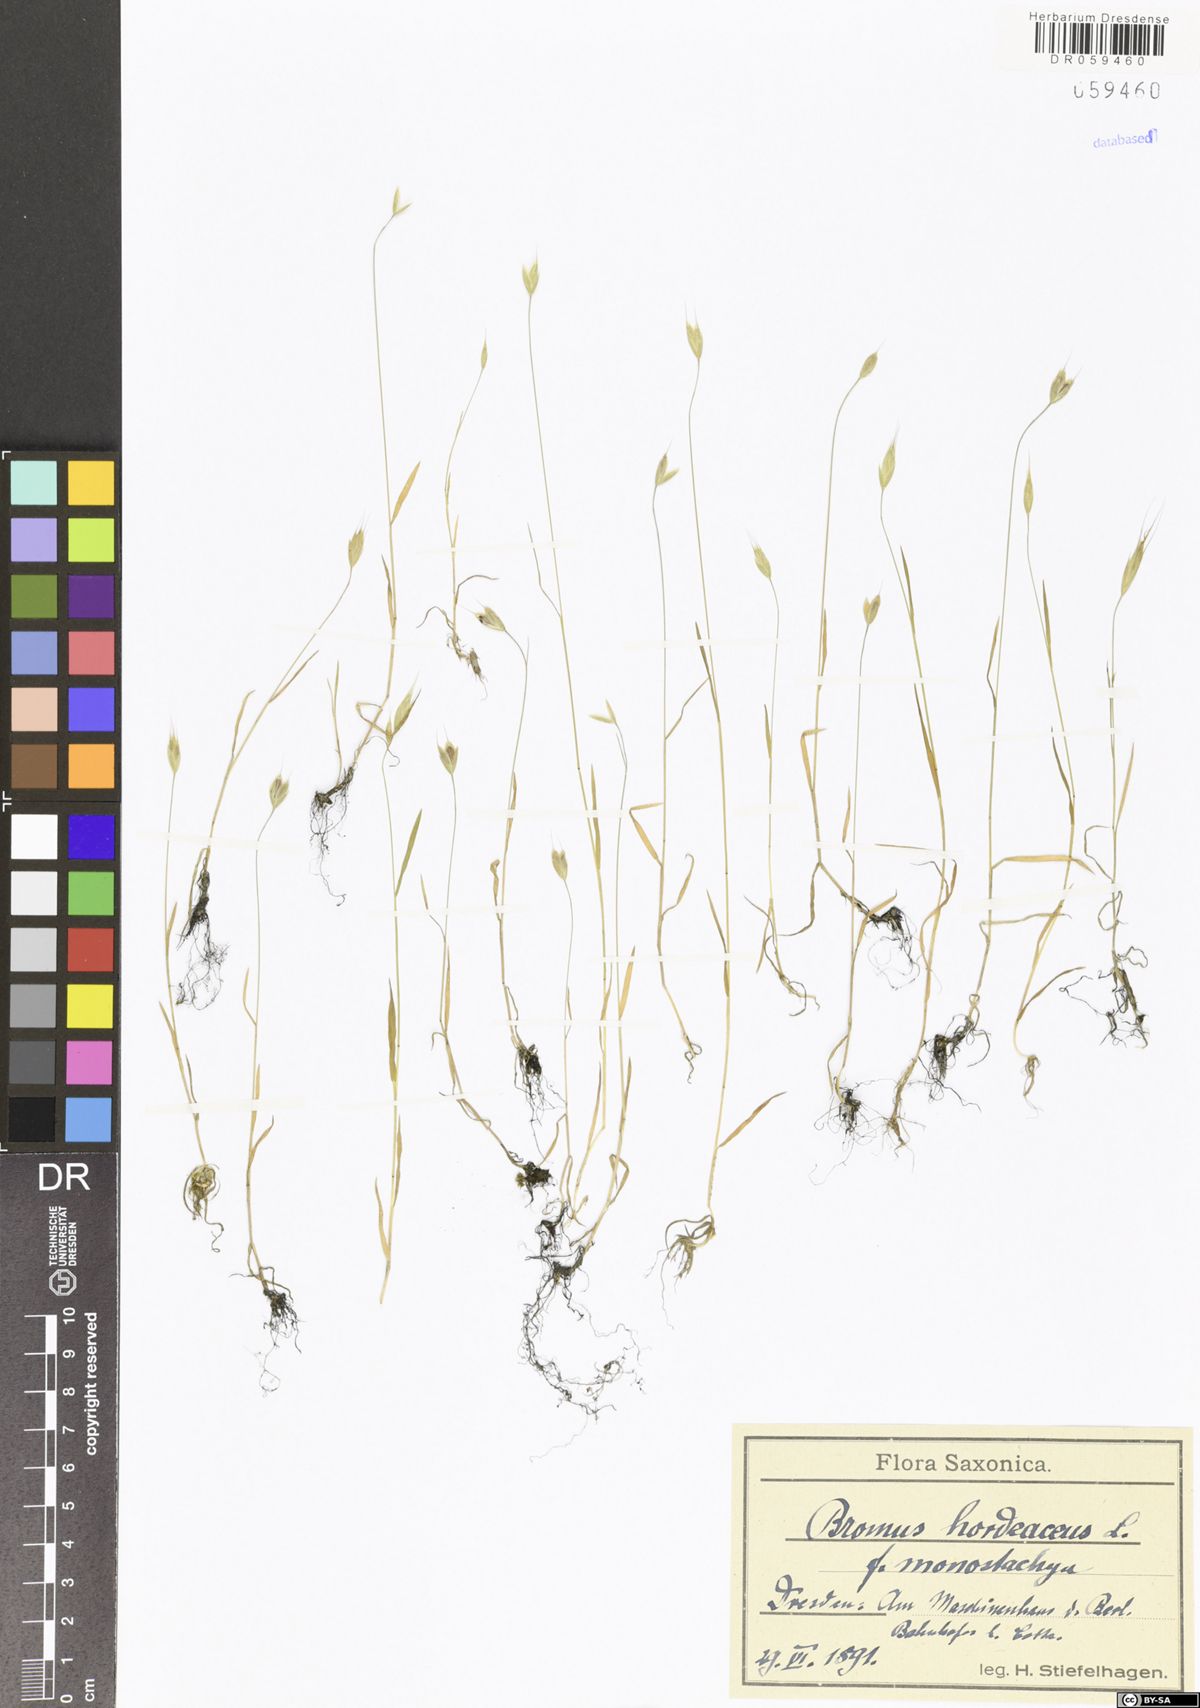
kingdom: Plantae
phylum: Tracheophyta
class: Liliopsida
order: Poales
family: Poaceae
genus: Bromus
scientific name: Bromus hordeaceus
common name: Soft brome
